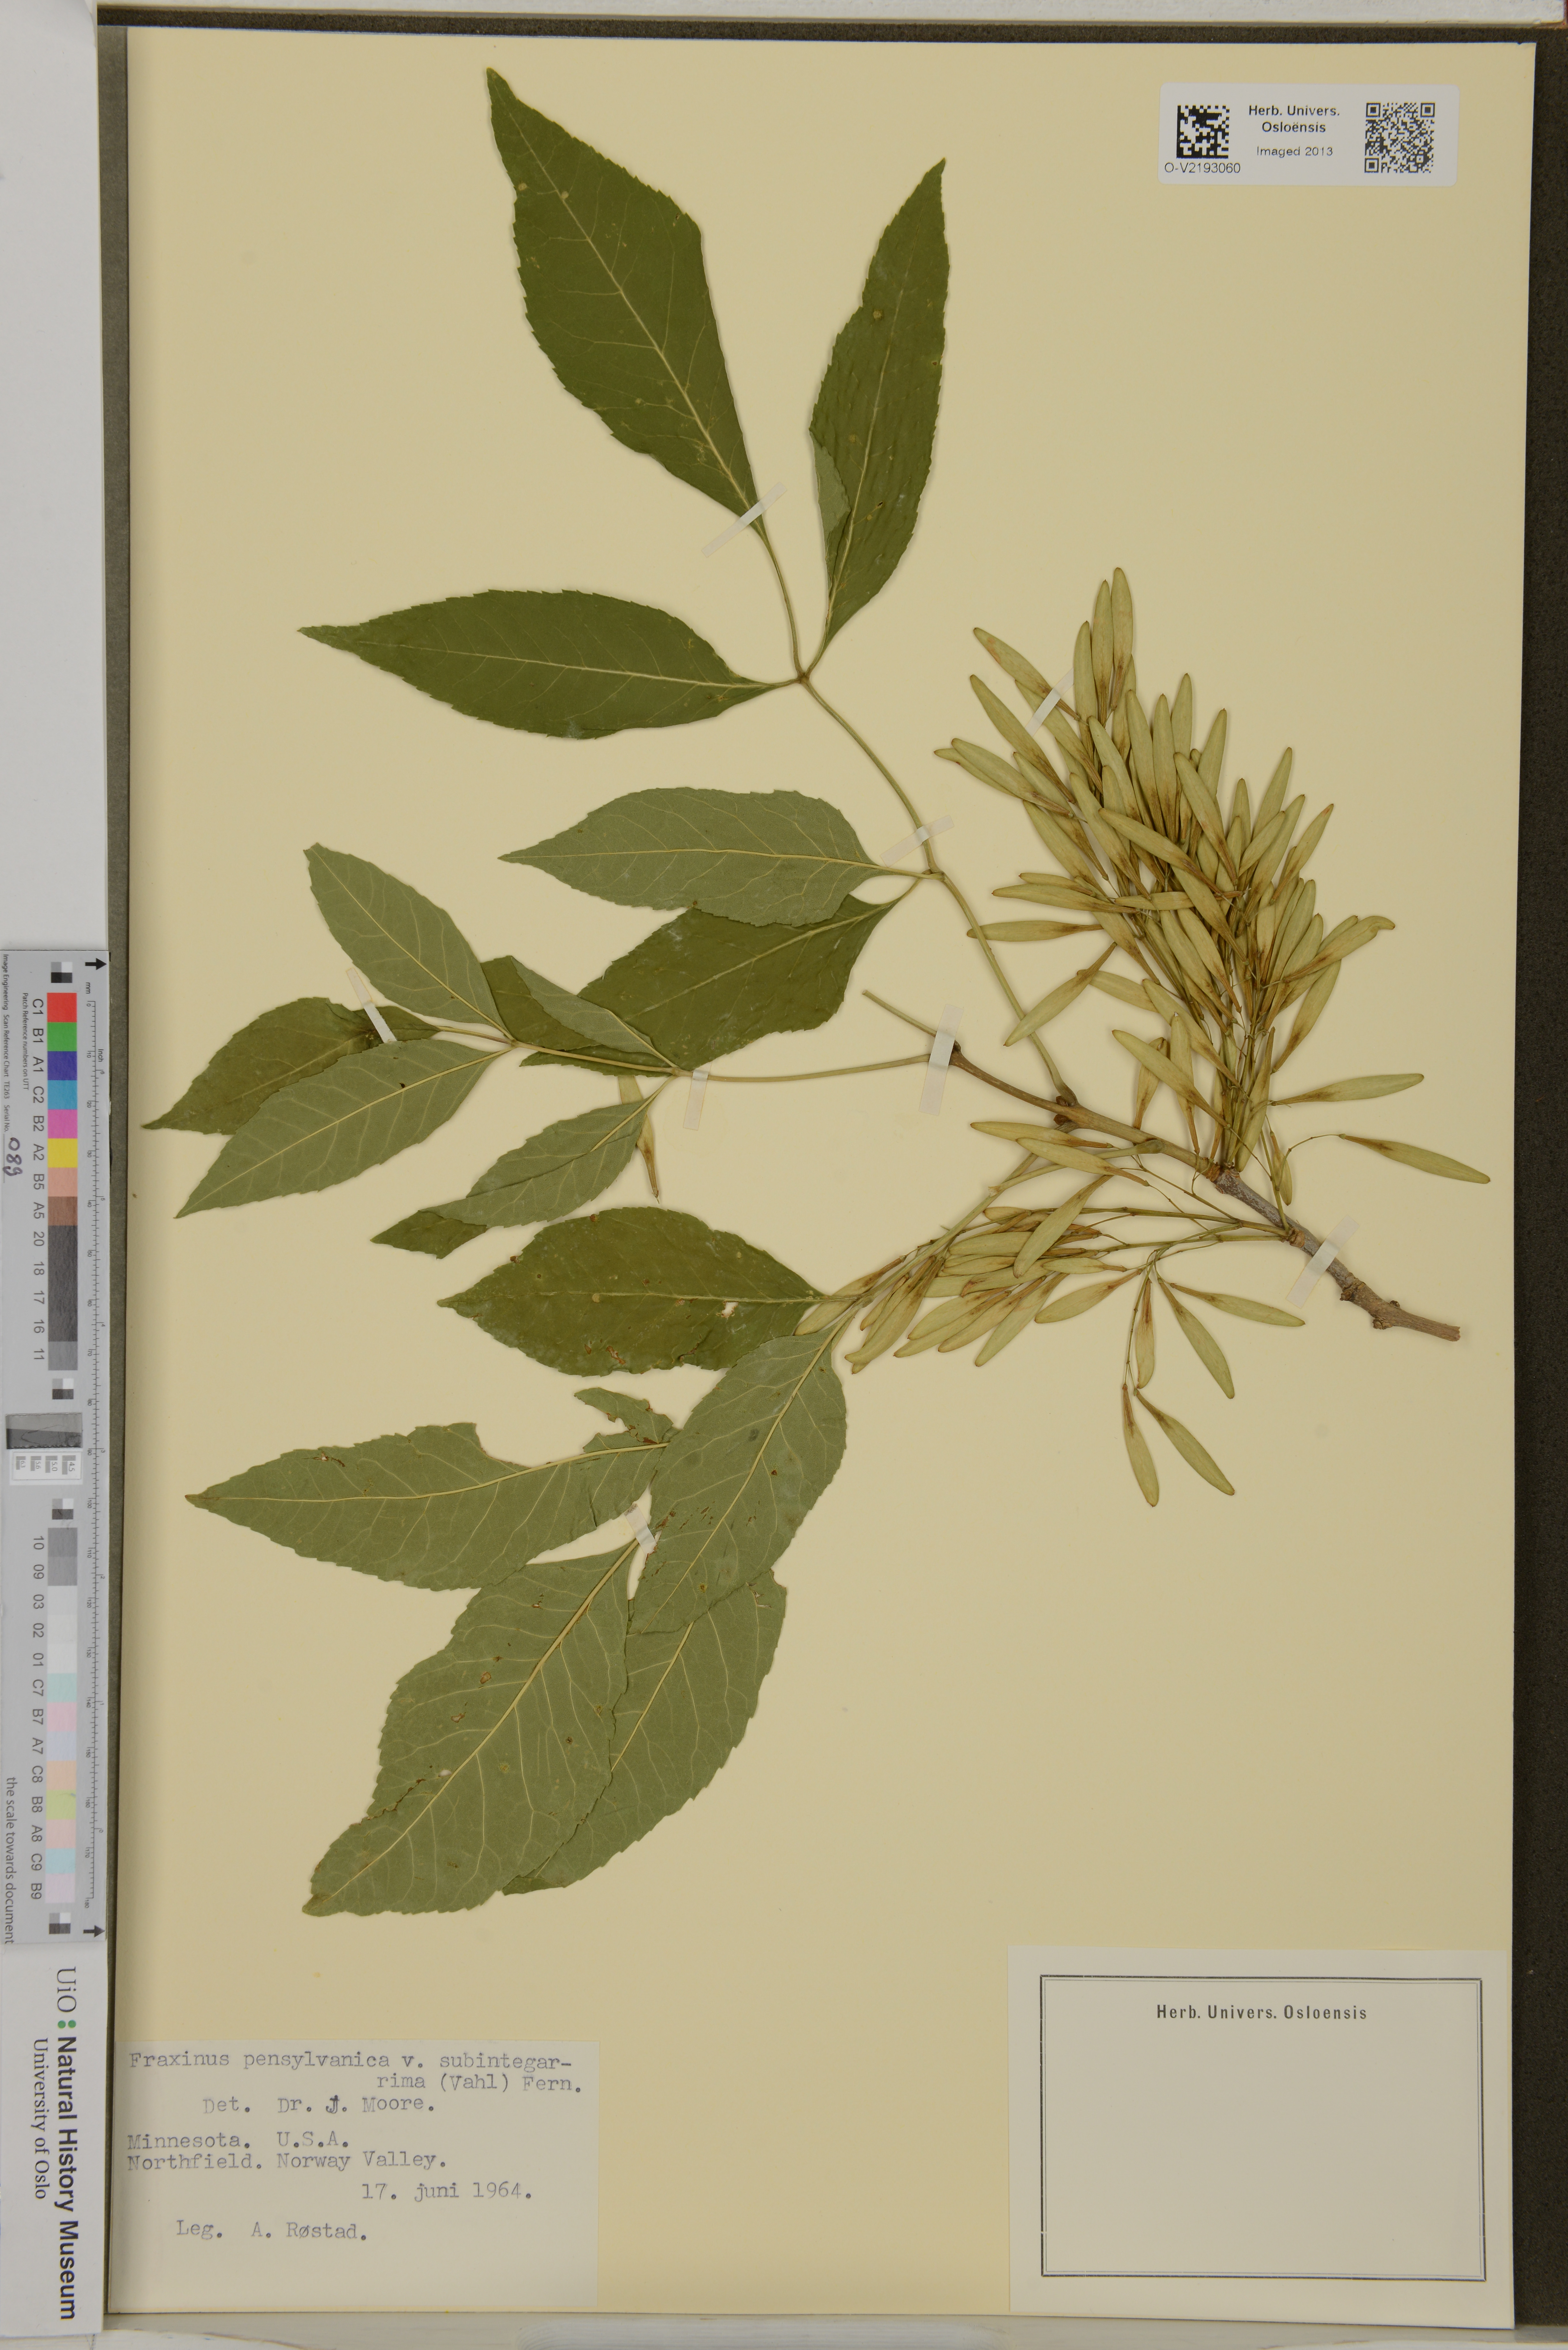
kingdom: Plantae
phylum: Tracheophyta
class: Magnoliopsida
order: Lamiales
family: Oleaceae
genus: Fraxinus
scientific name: Fraxinus pennsylvanica
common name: Green ash
